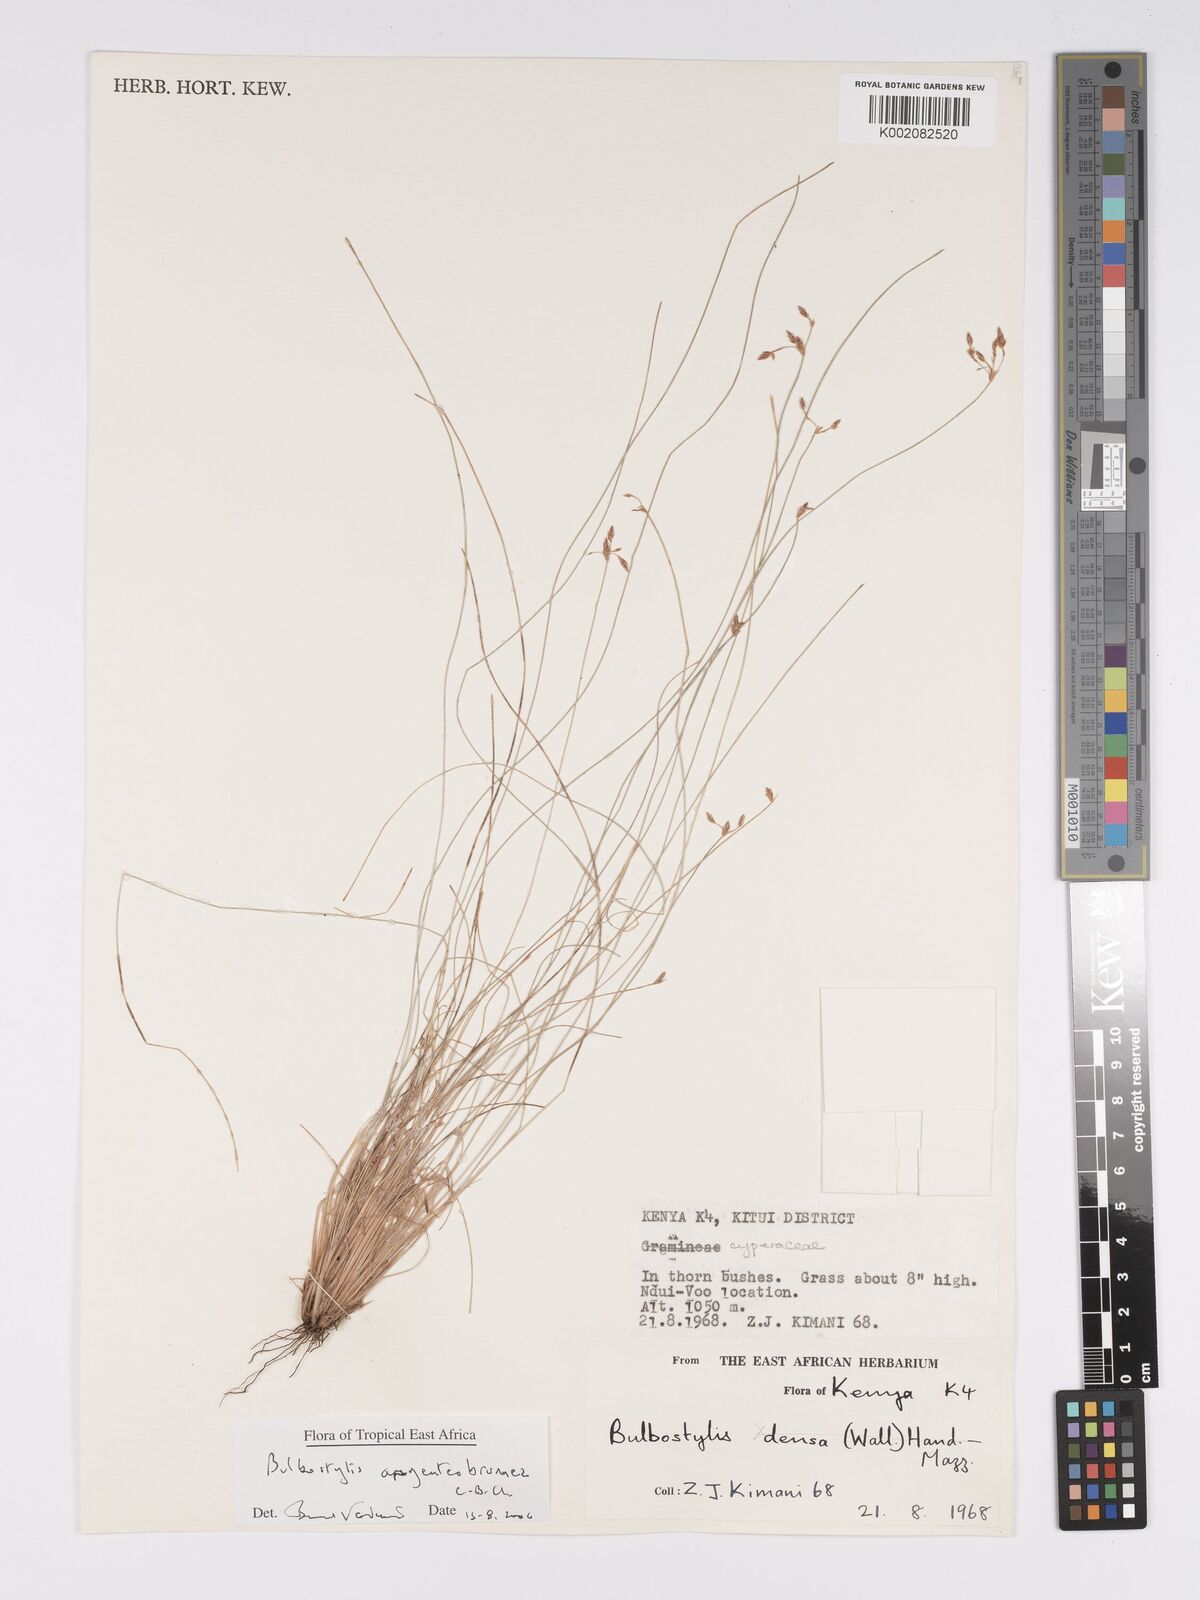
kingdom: Plantae
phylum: Tracheophyta
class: Liliopsida
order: Poales
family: Cyperaceae
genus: Bulbostylis
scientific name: Bulbostylis argenteobrunea
